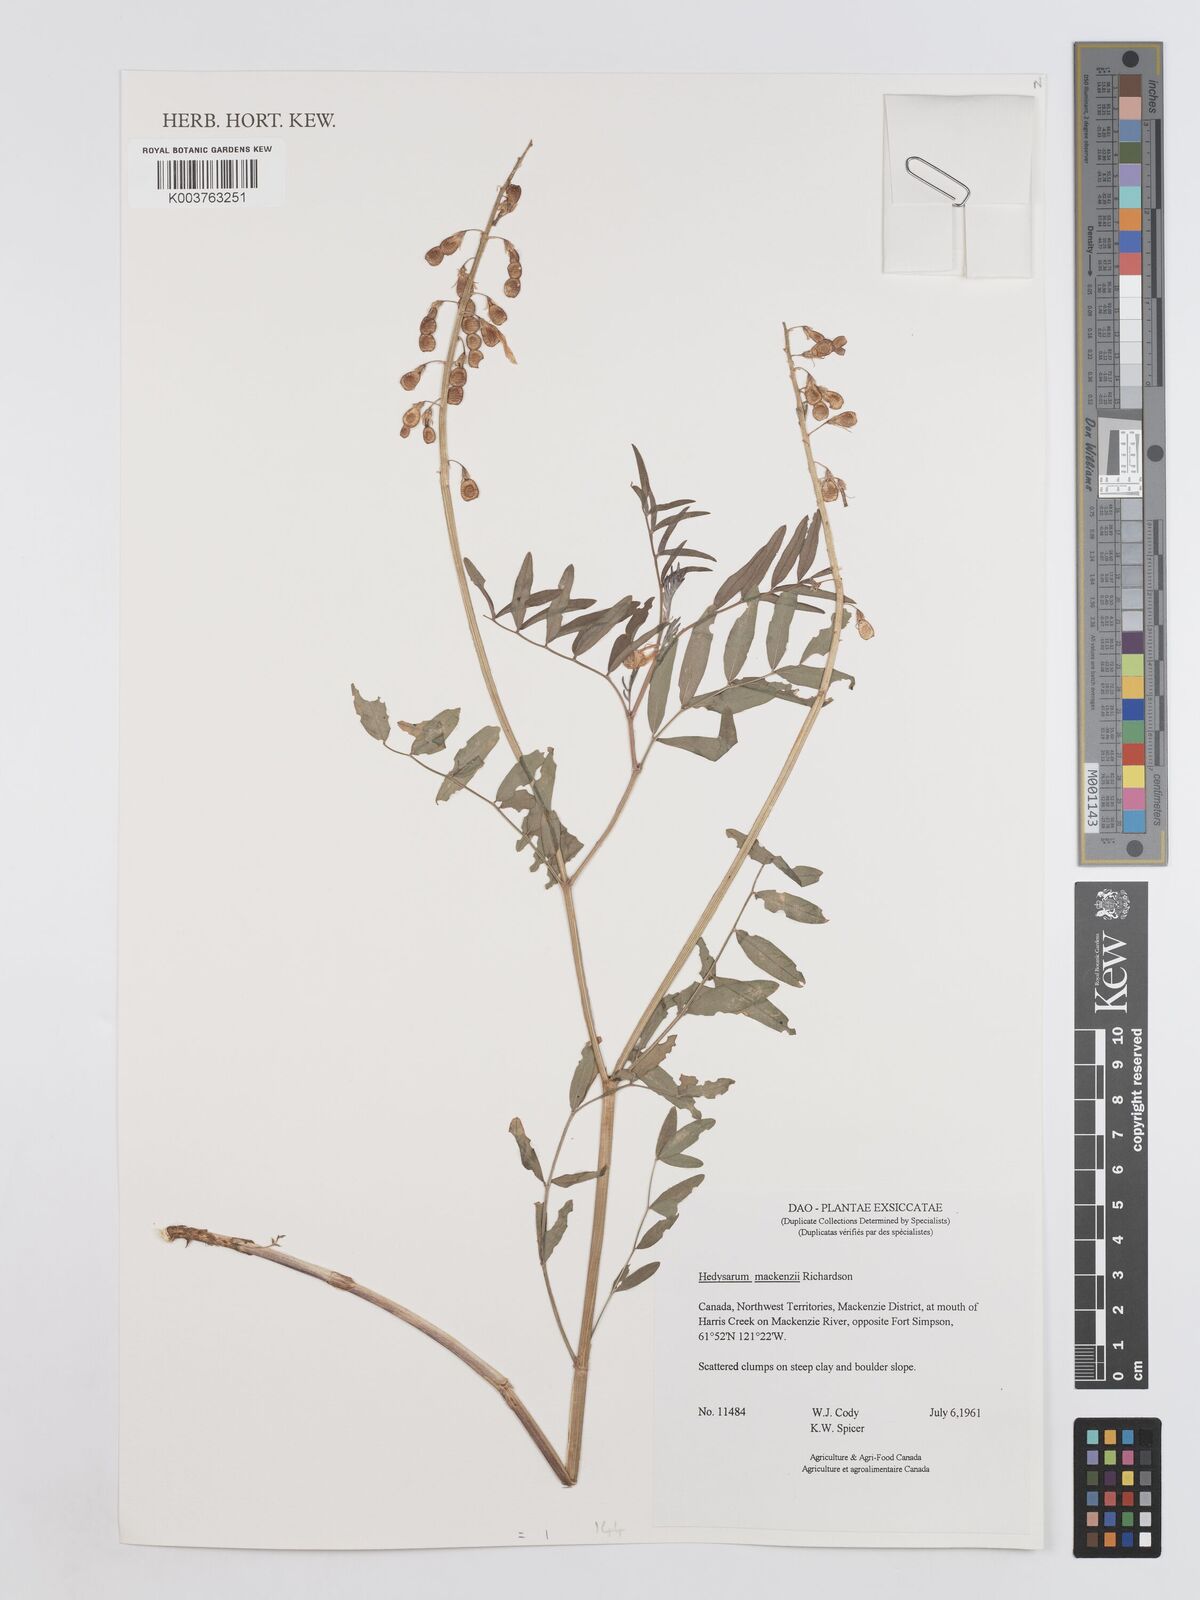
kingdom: Plantae
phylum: Tracheophyta
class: Magnoliopsida
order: Fabales
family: Fabaceae
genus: Hedysarum
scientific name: Hedysarum boreale
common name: Northern sweet-vetch
